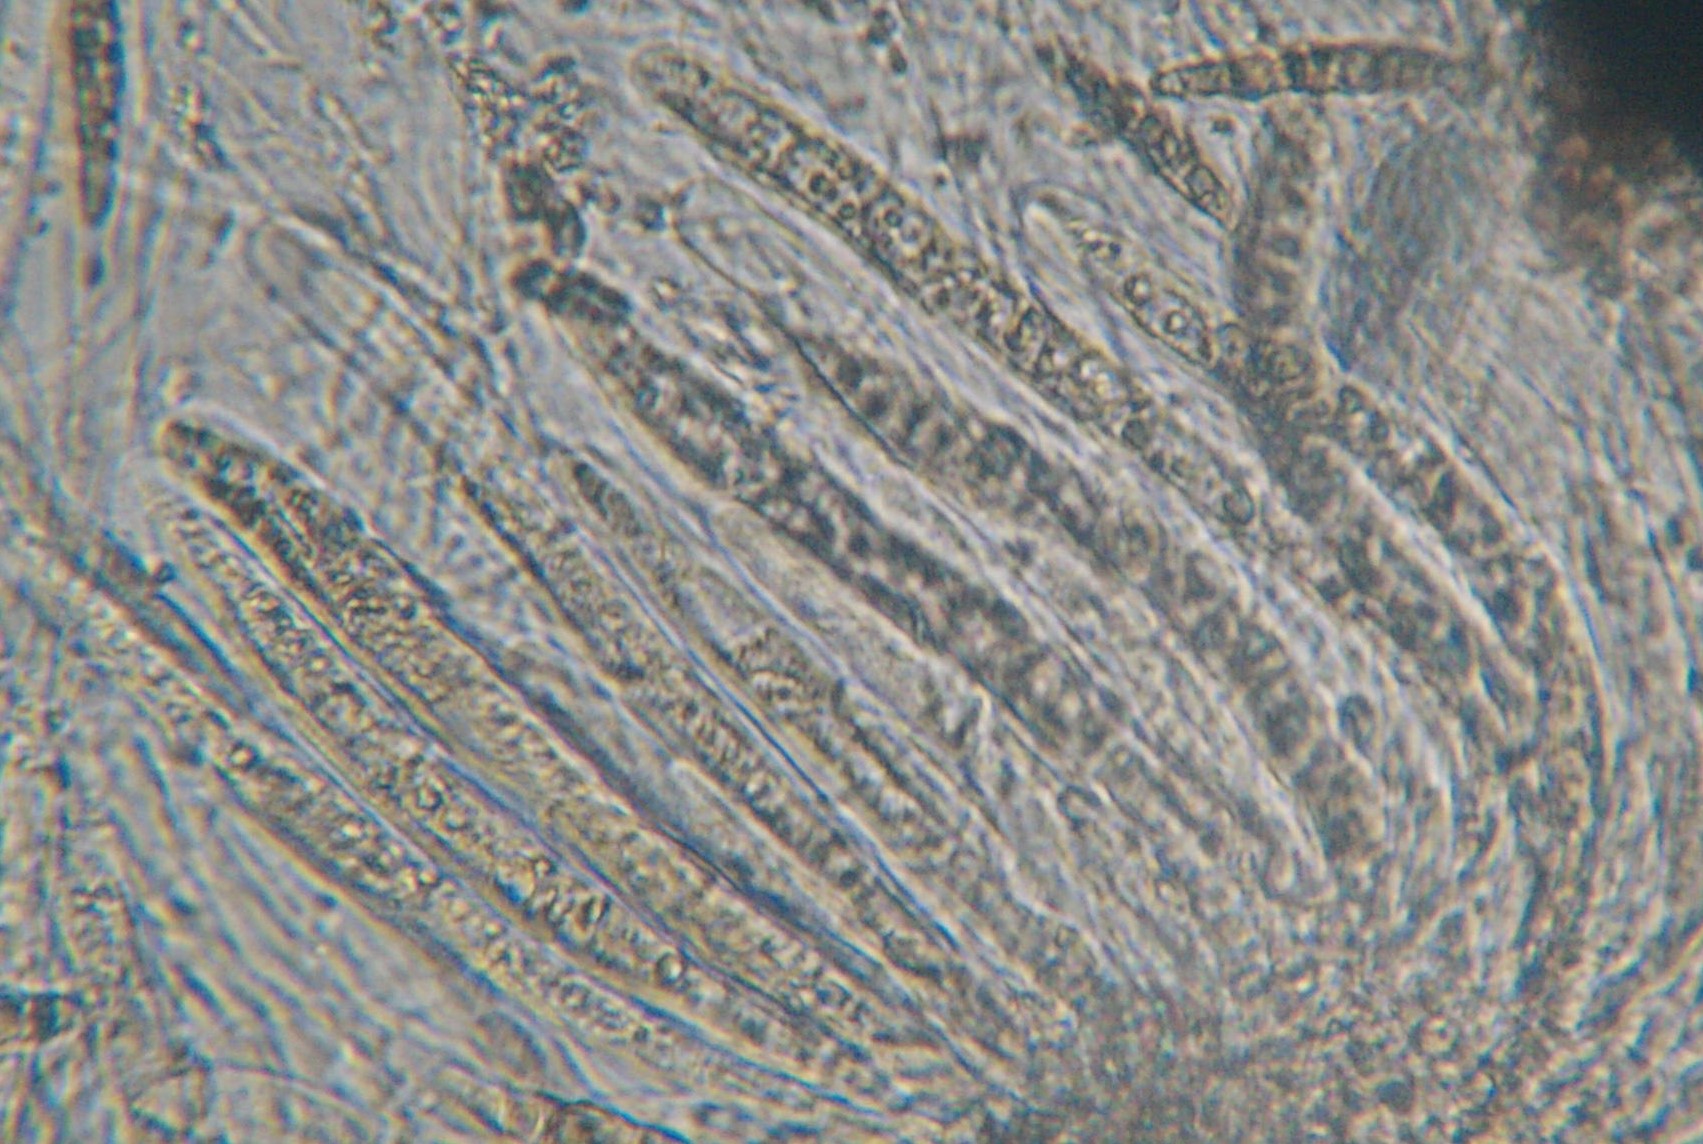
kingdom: Plantae
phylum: Bryophyta
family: Dothideomycetes
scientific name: Dothideomycetes
